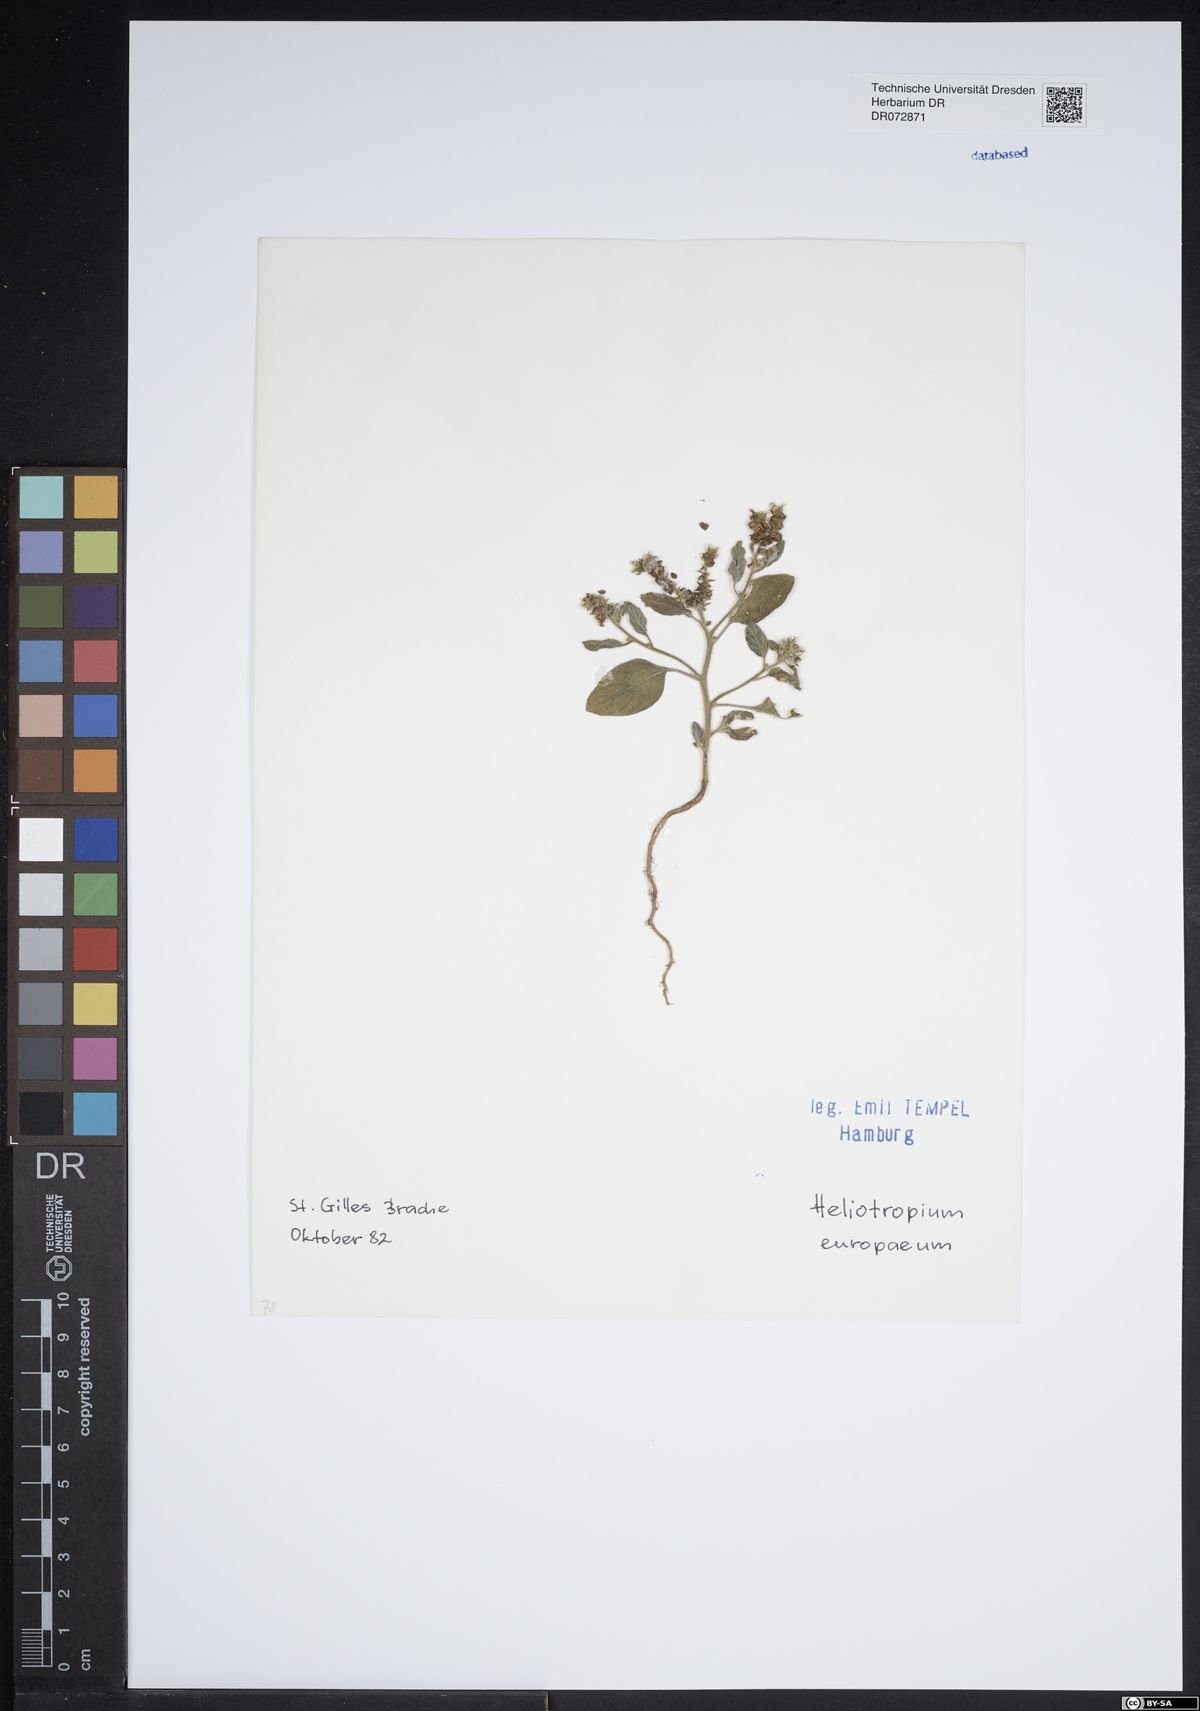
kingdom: Plantae
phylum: Tracheophyta
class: Magnoliopsida
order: Boraginales
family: Heliotropiaceae
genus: Heliotropium
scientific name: Heliotropium europaeum
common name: European heliotrope
